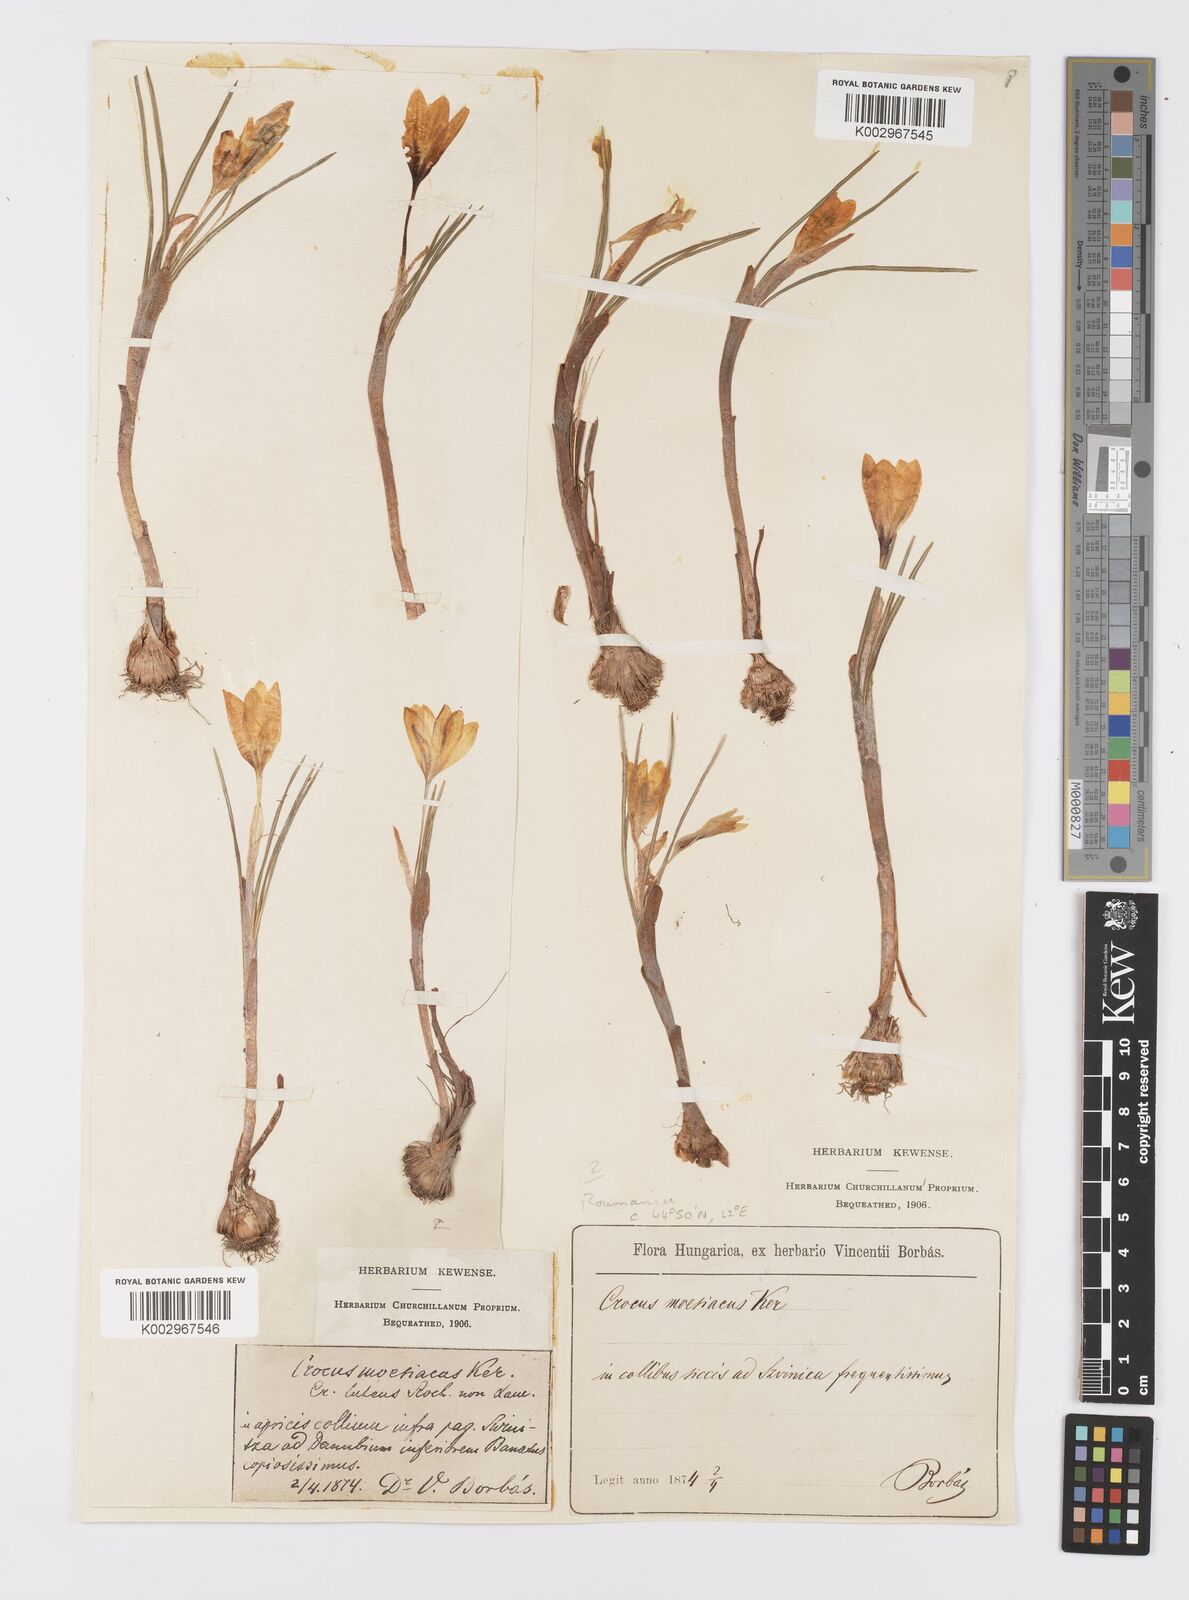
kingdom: Plantae
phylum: Tracheophyta
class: Liliopsida
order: Asparagales
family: Iridaceae
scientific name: Iridaceae
